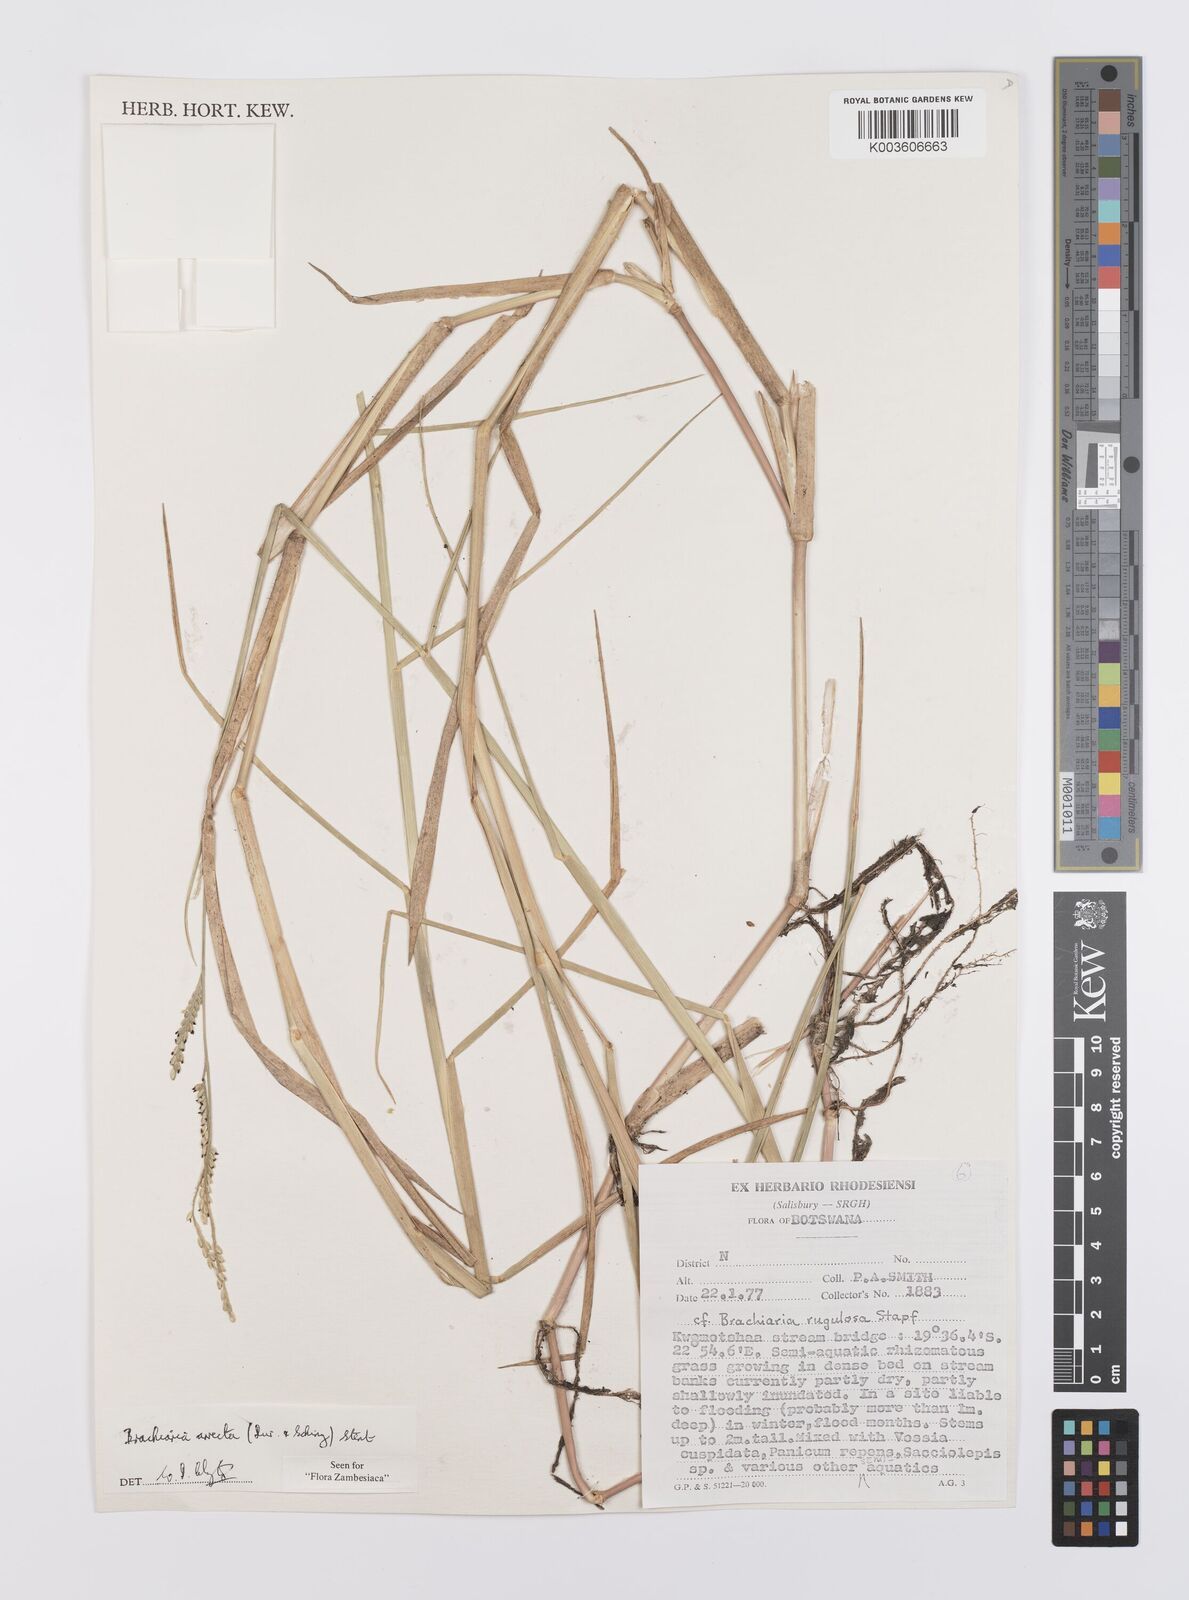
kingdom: Plantae
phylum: Tracheophyta
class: Liliopsida
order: Poales
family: Poaceae
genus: Urochloa
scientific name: Urochloa arrecta
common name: African signalgrass
